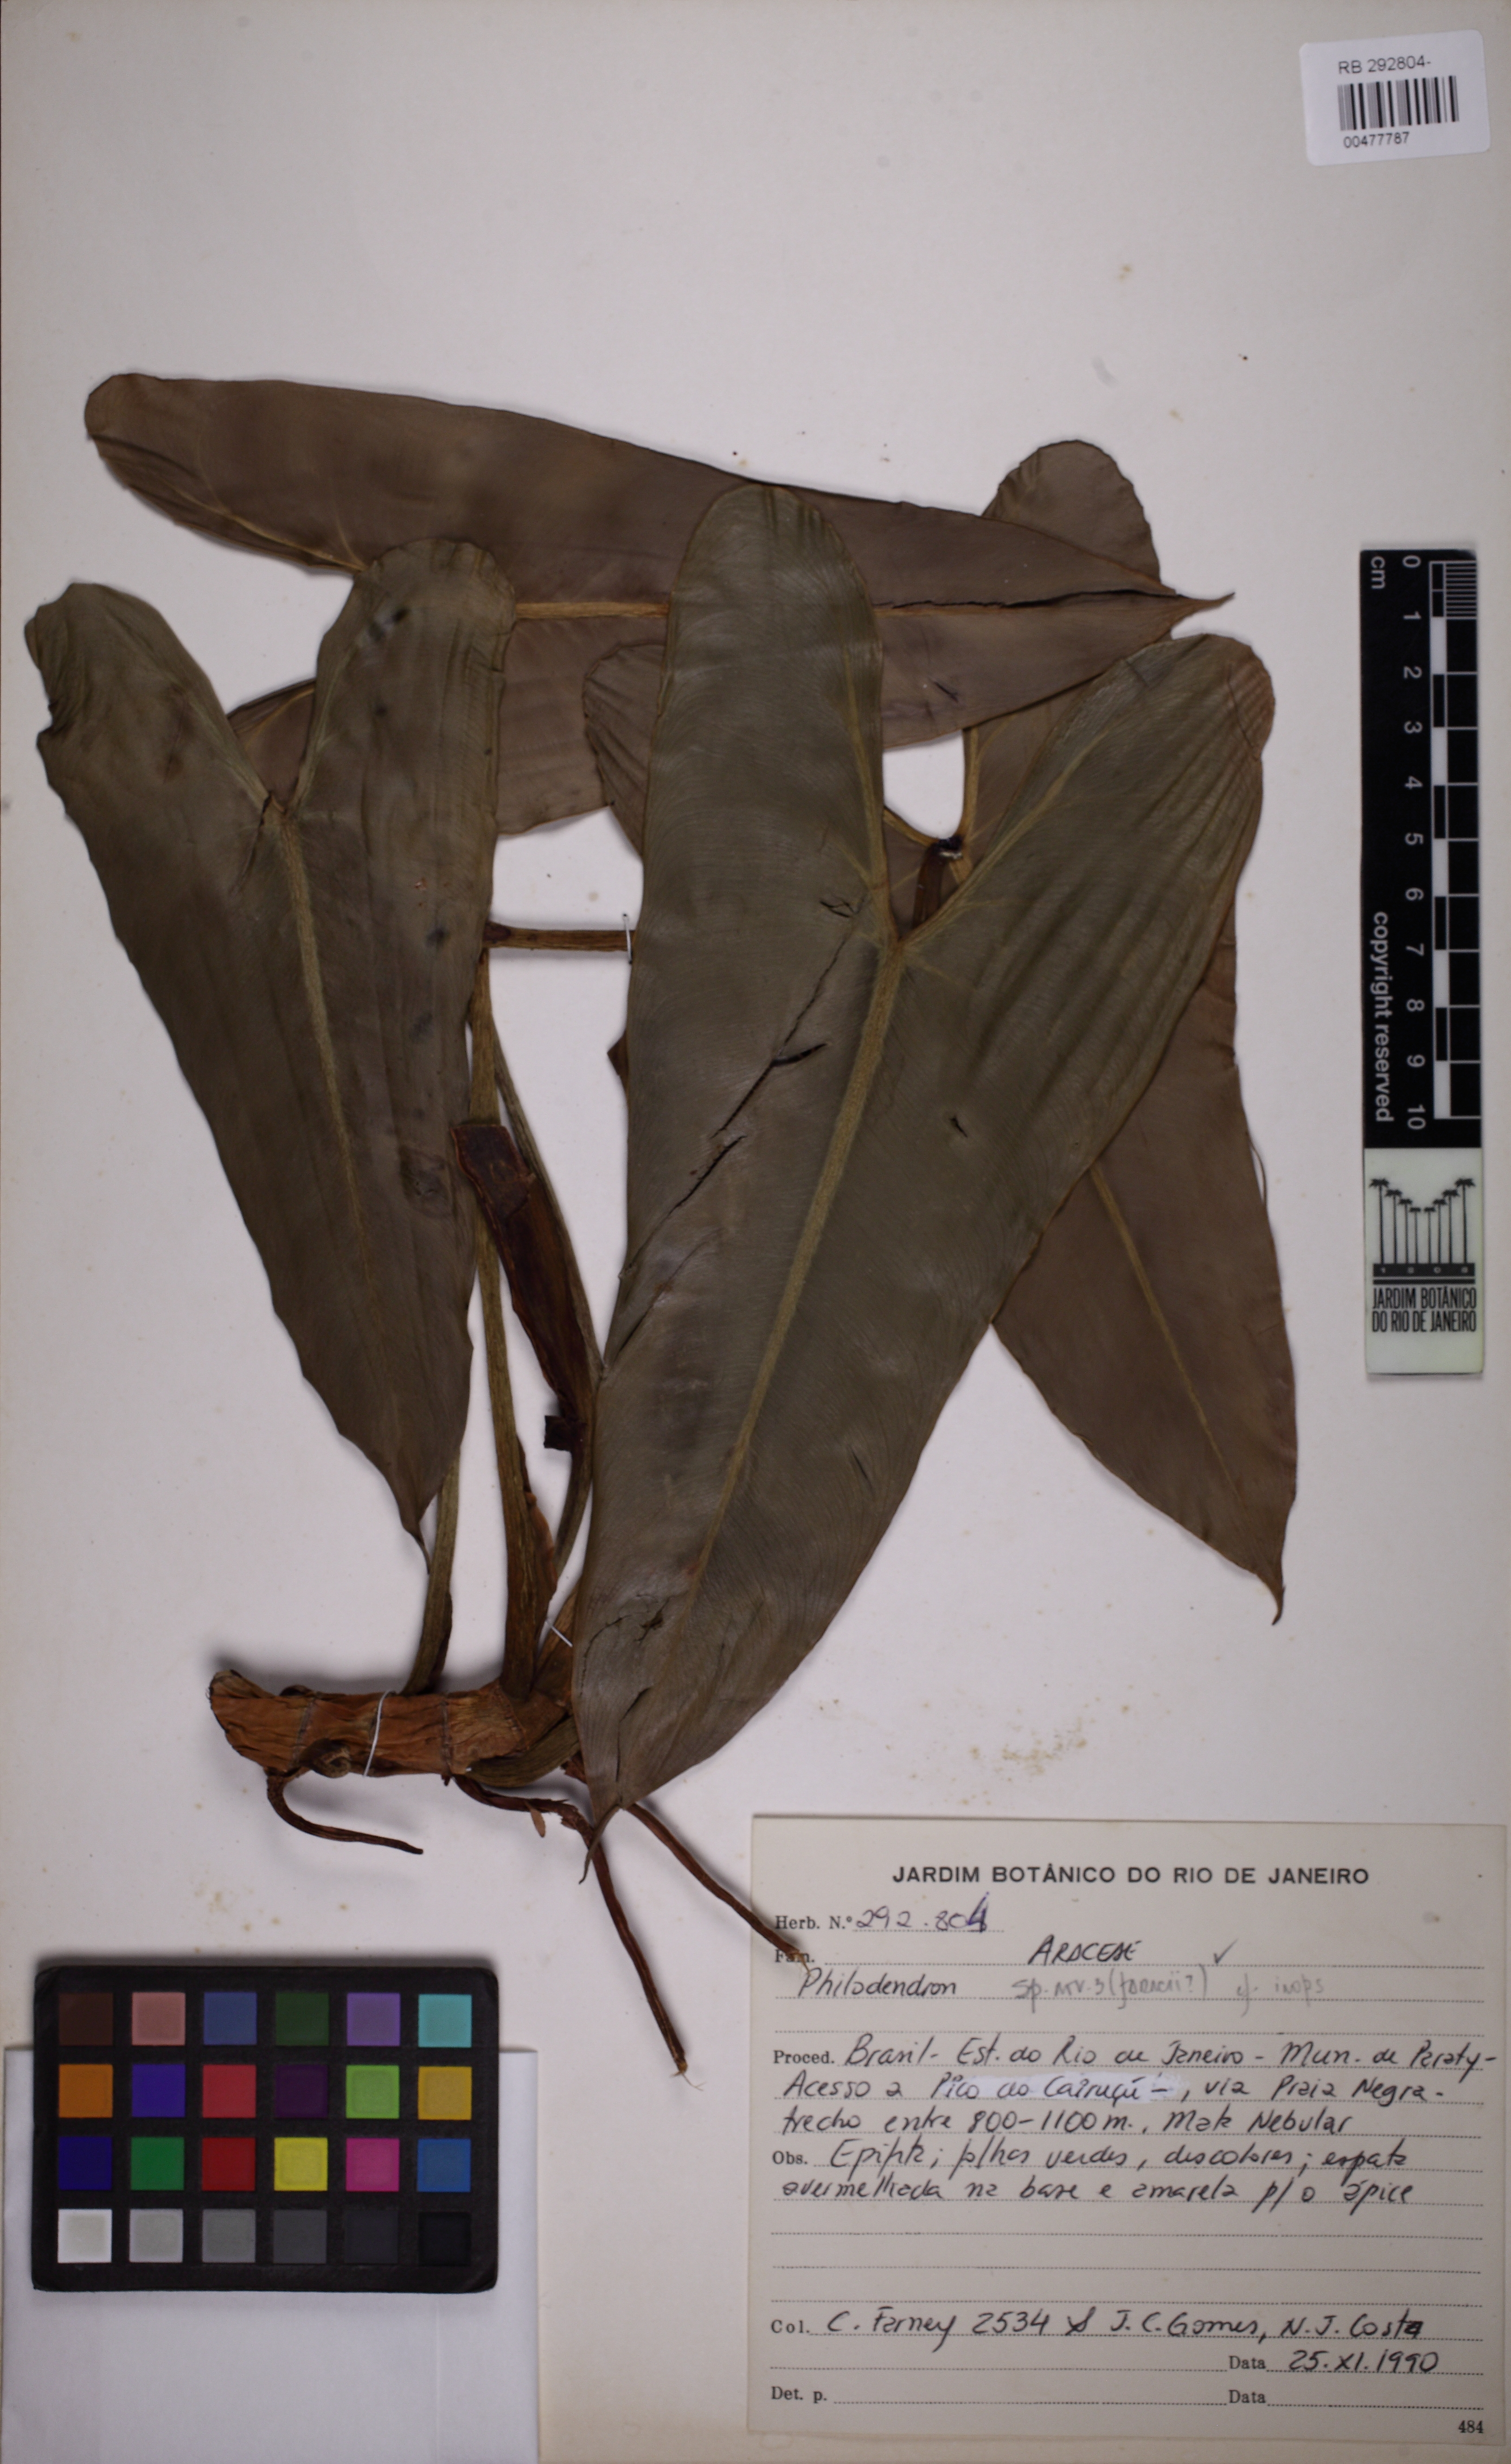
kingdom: Plantae
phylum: Tracheophyta
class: Liliopsida
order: Alismatales
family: Araceae
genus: Philodendron
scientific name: Philodendron
